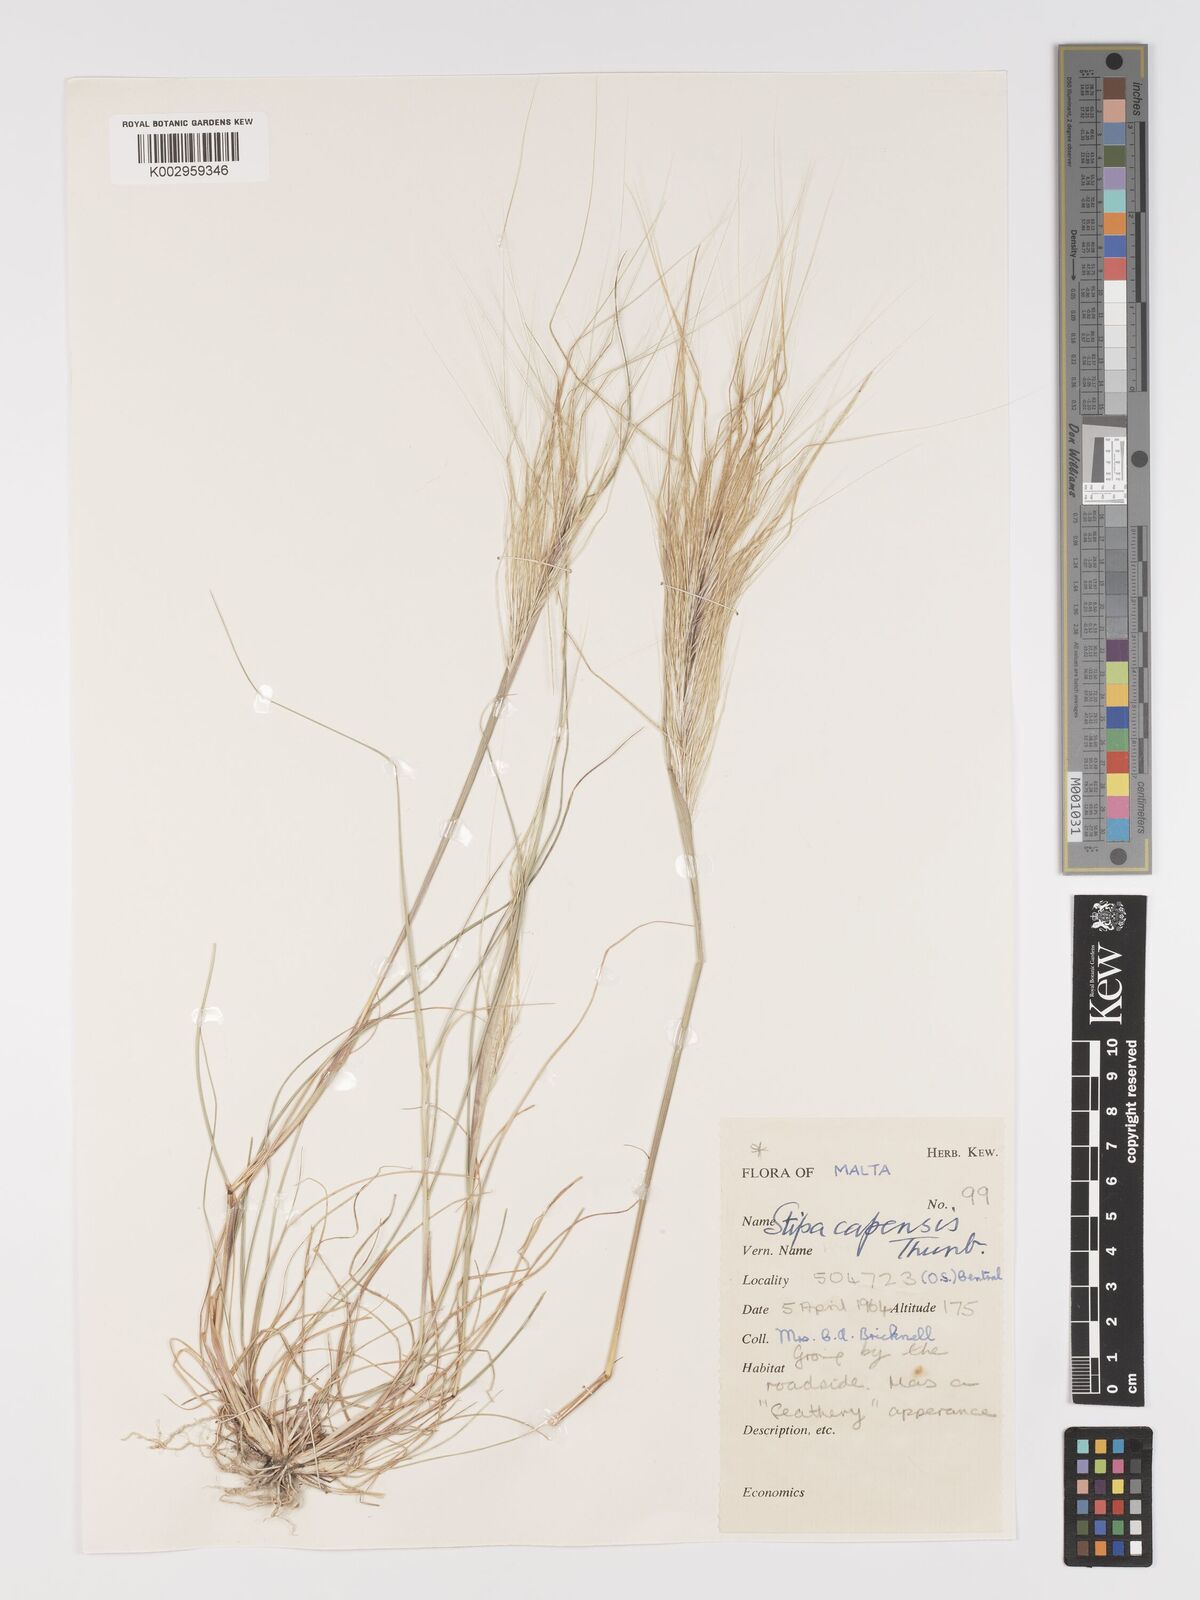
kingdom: Plantae
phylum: Tracheophyta
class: Liliopsida
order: Poales
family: Poaceae
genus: Stipellula
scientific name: Stipellula capensis
